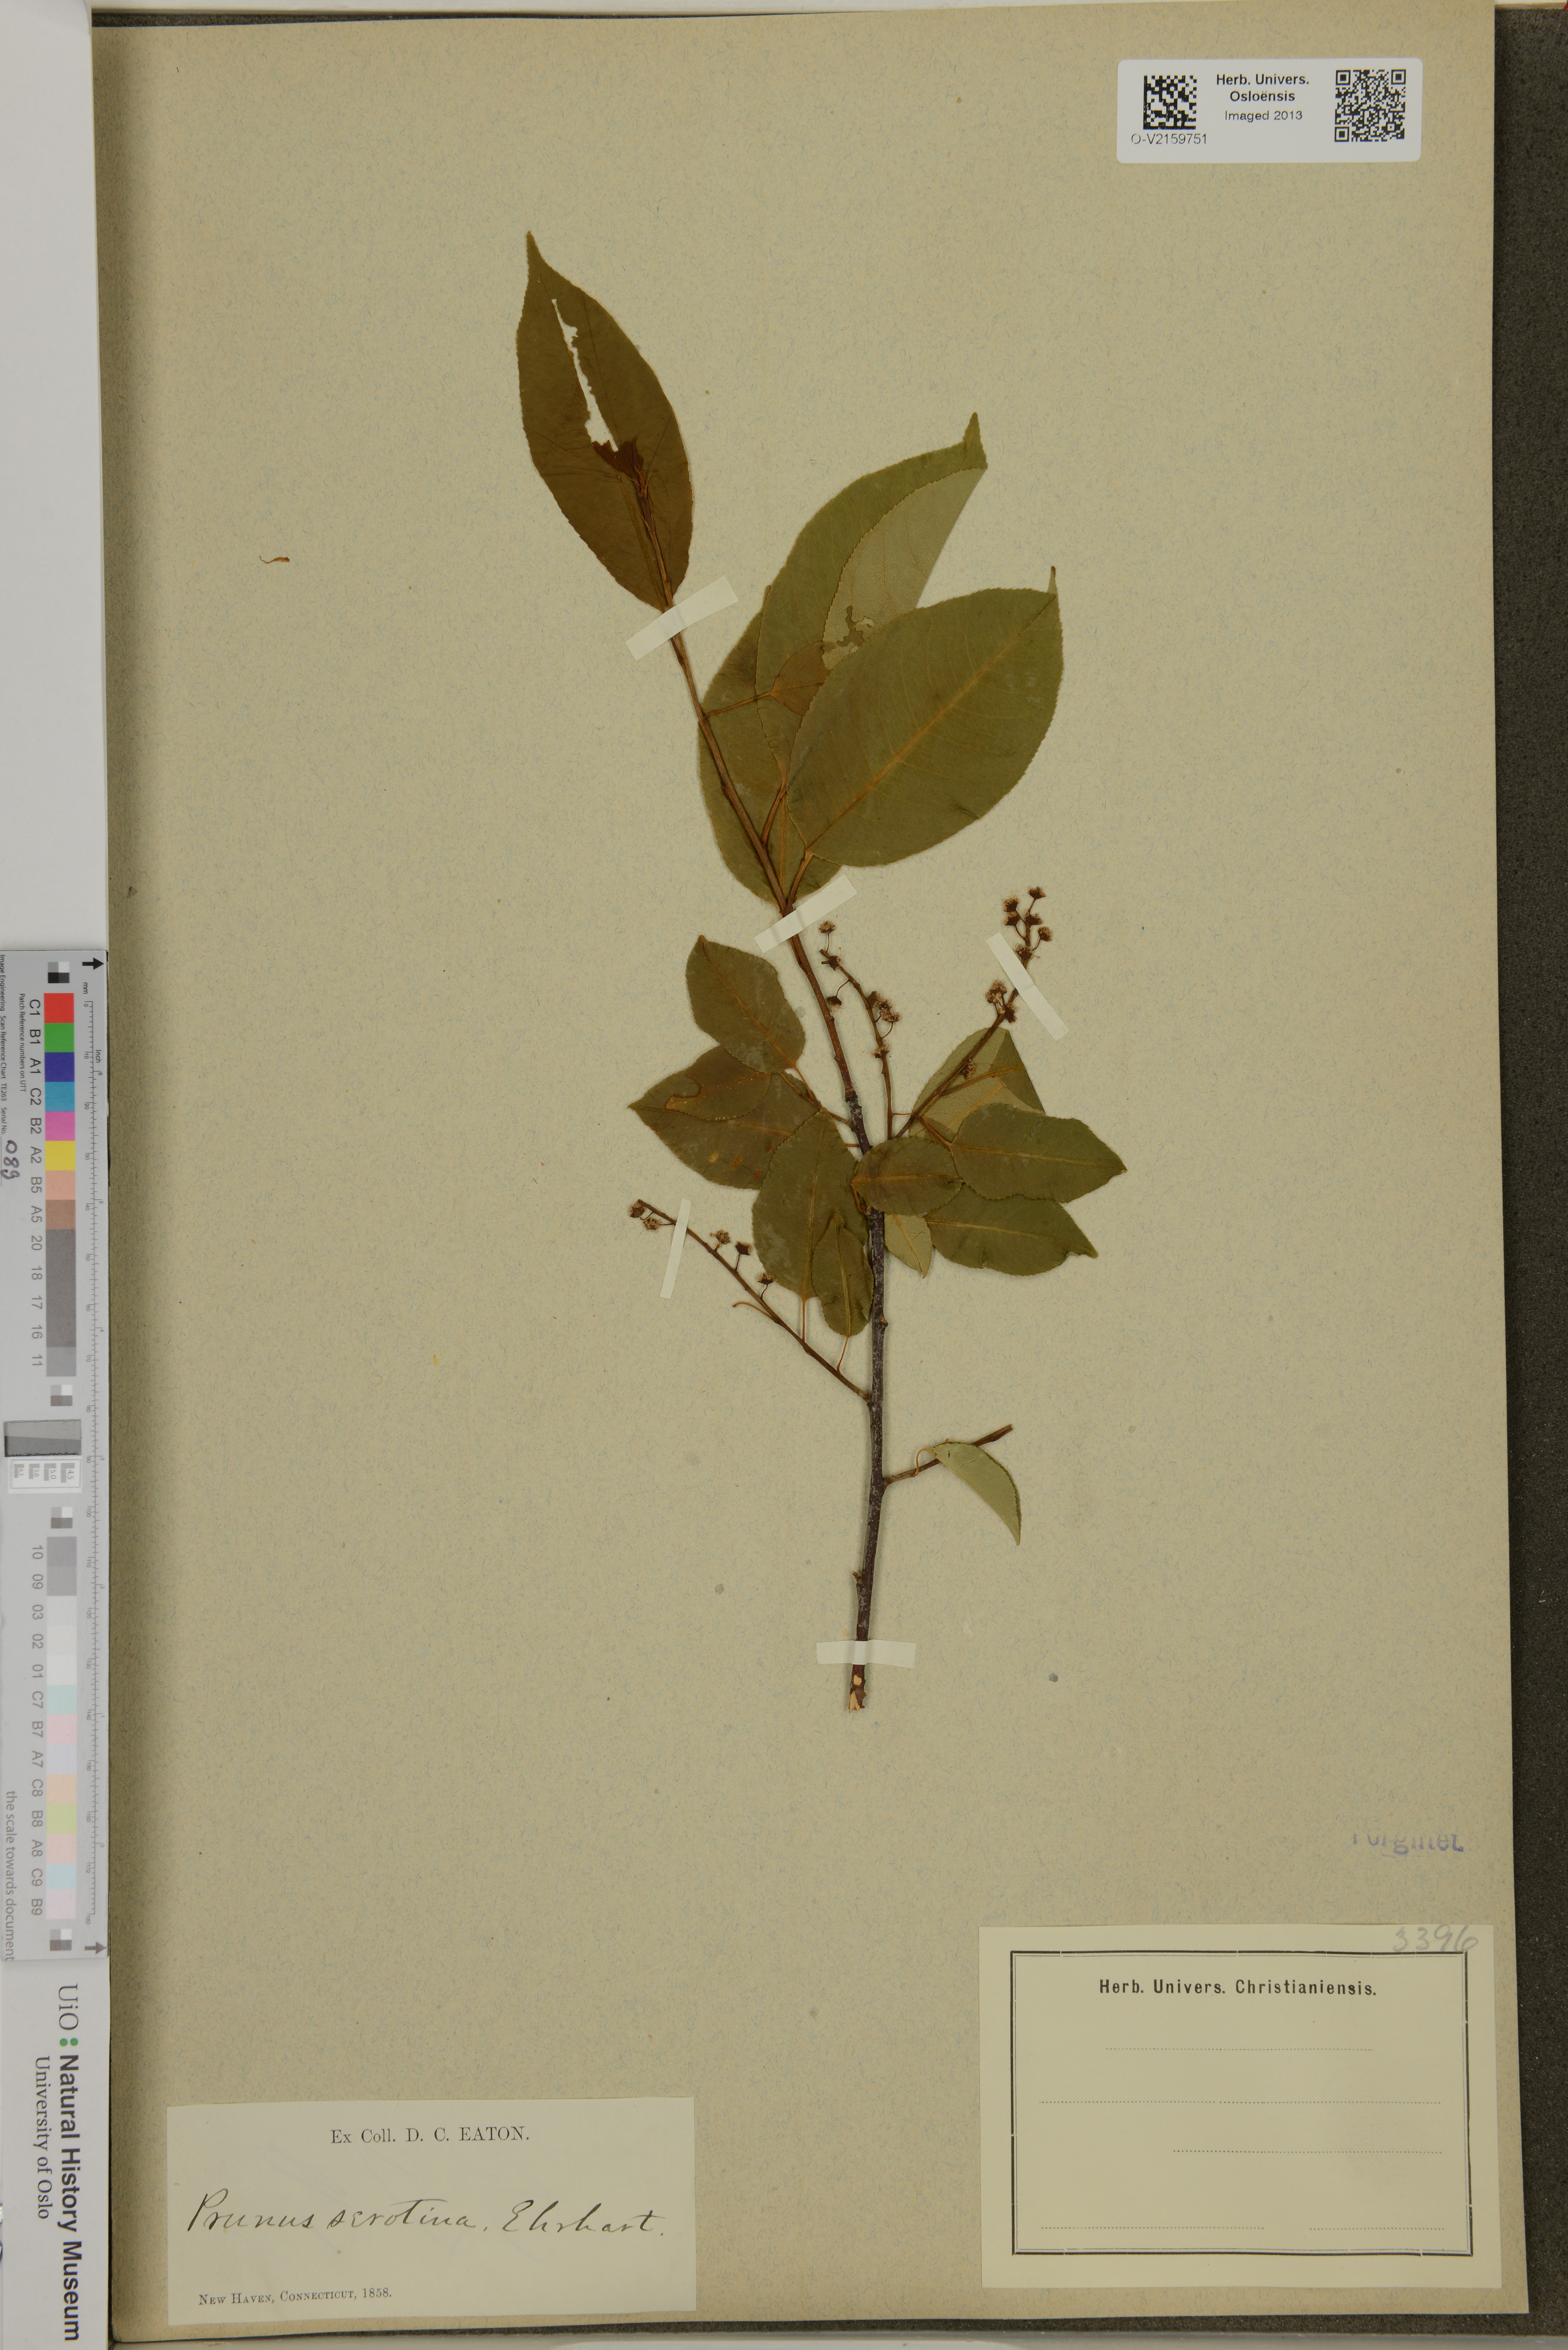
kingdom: Plantae
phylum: Tracheophyta
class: Magnoliopsida
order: Rosales
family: Rosaceae
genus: Prunus
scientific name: Prunus serotina
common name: Black cherry
